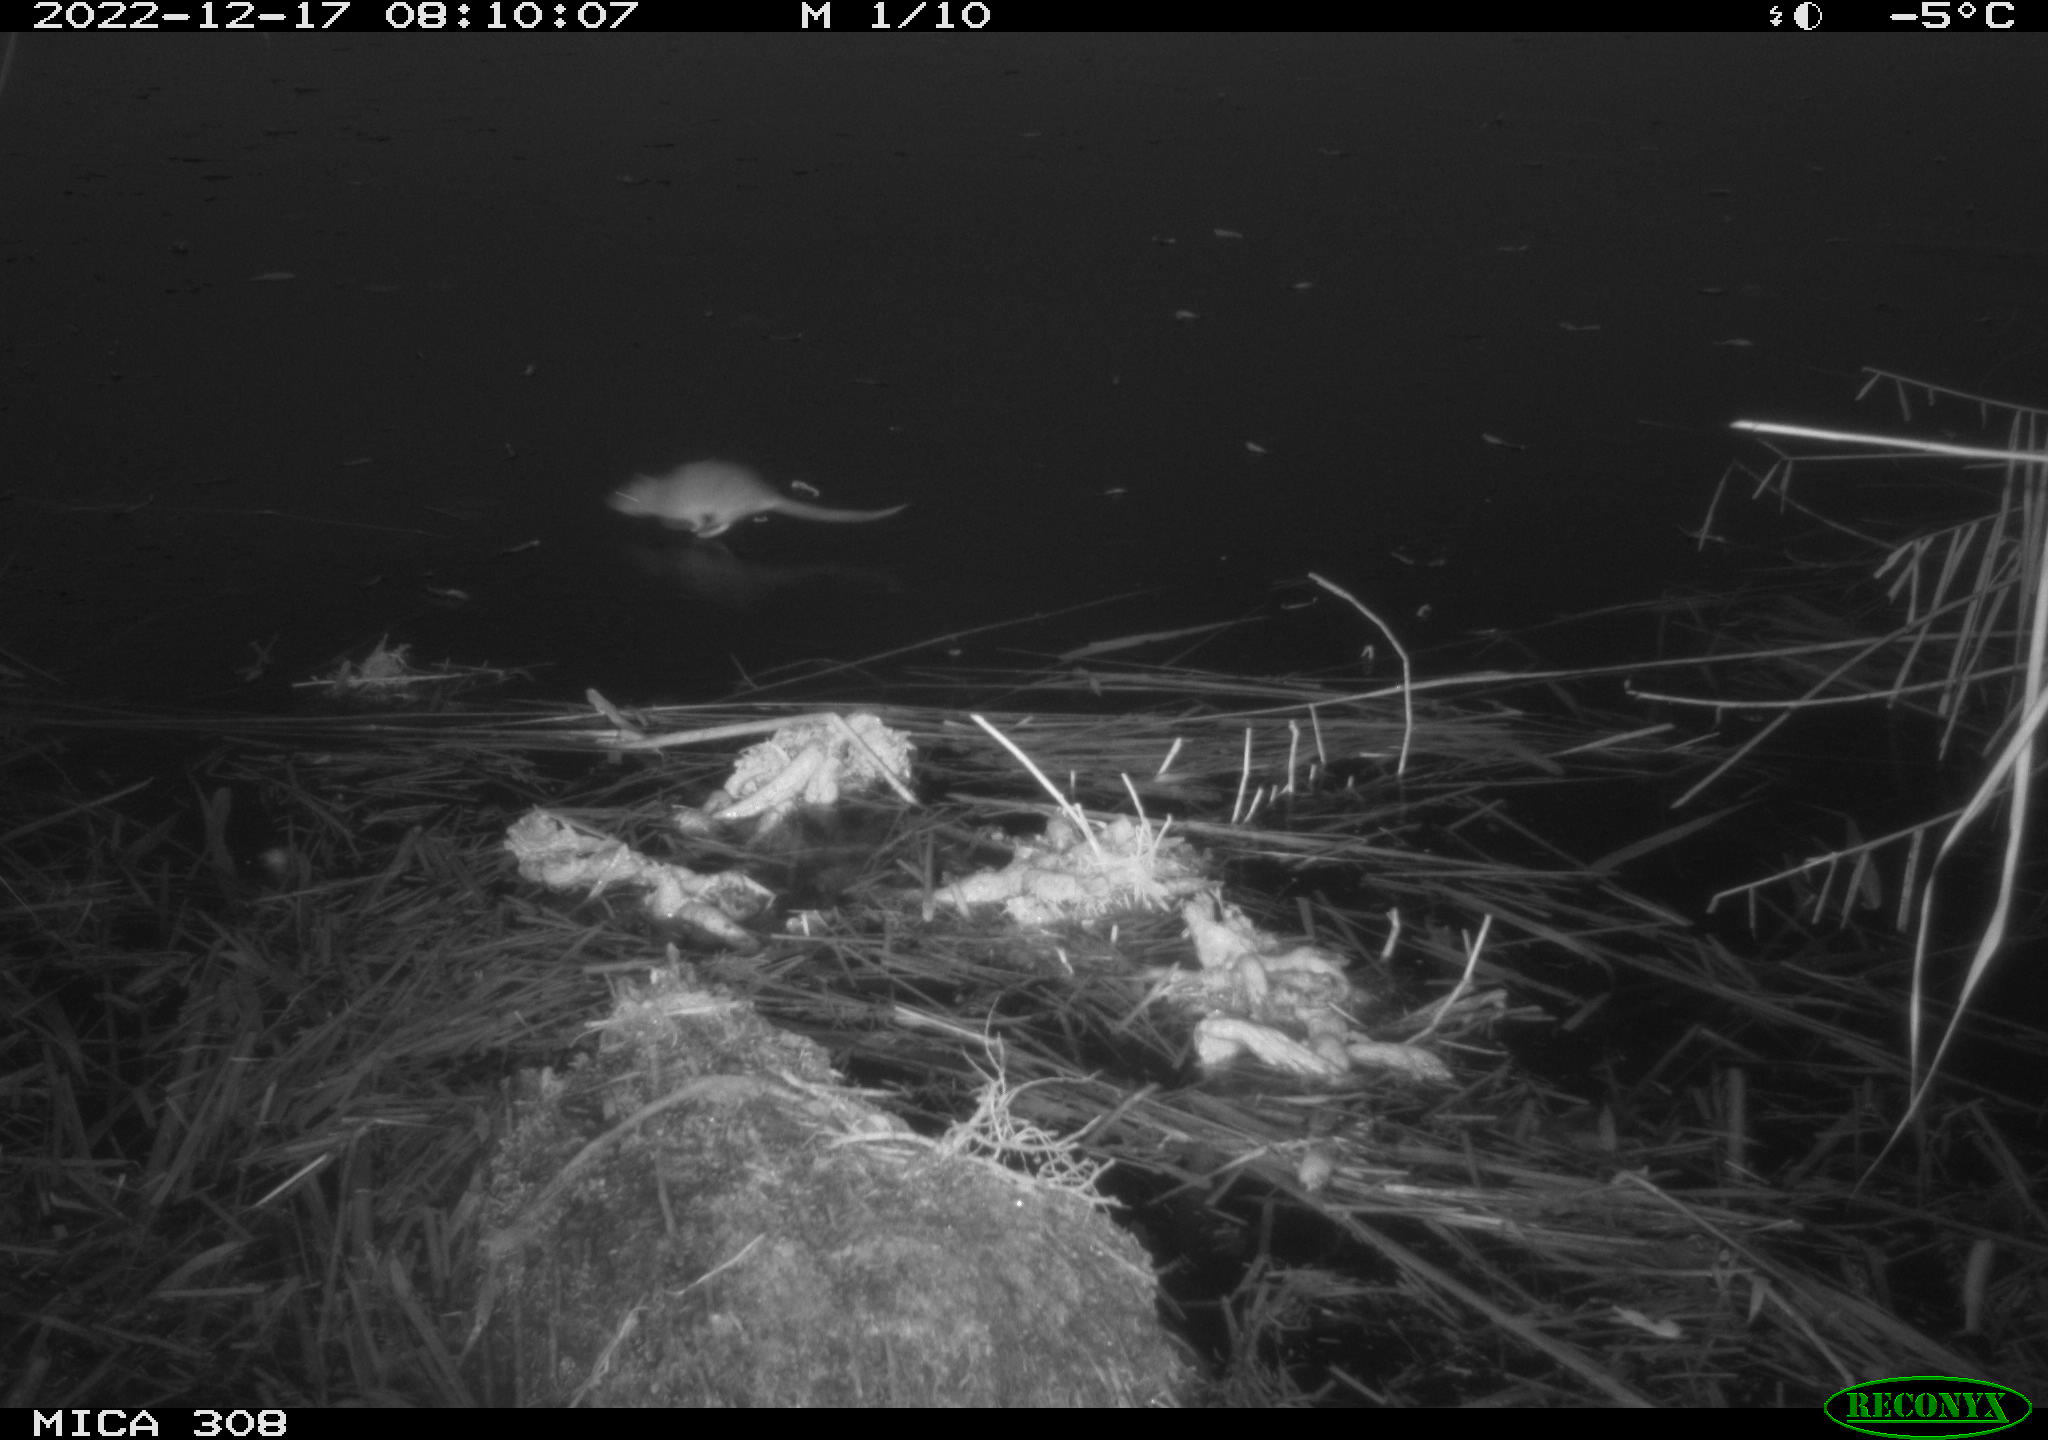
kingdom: Animalia
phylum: Chordata
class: Mammalia
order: Rodentia
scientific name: Rodentia
